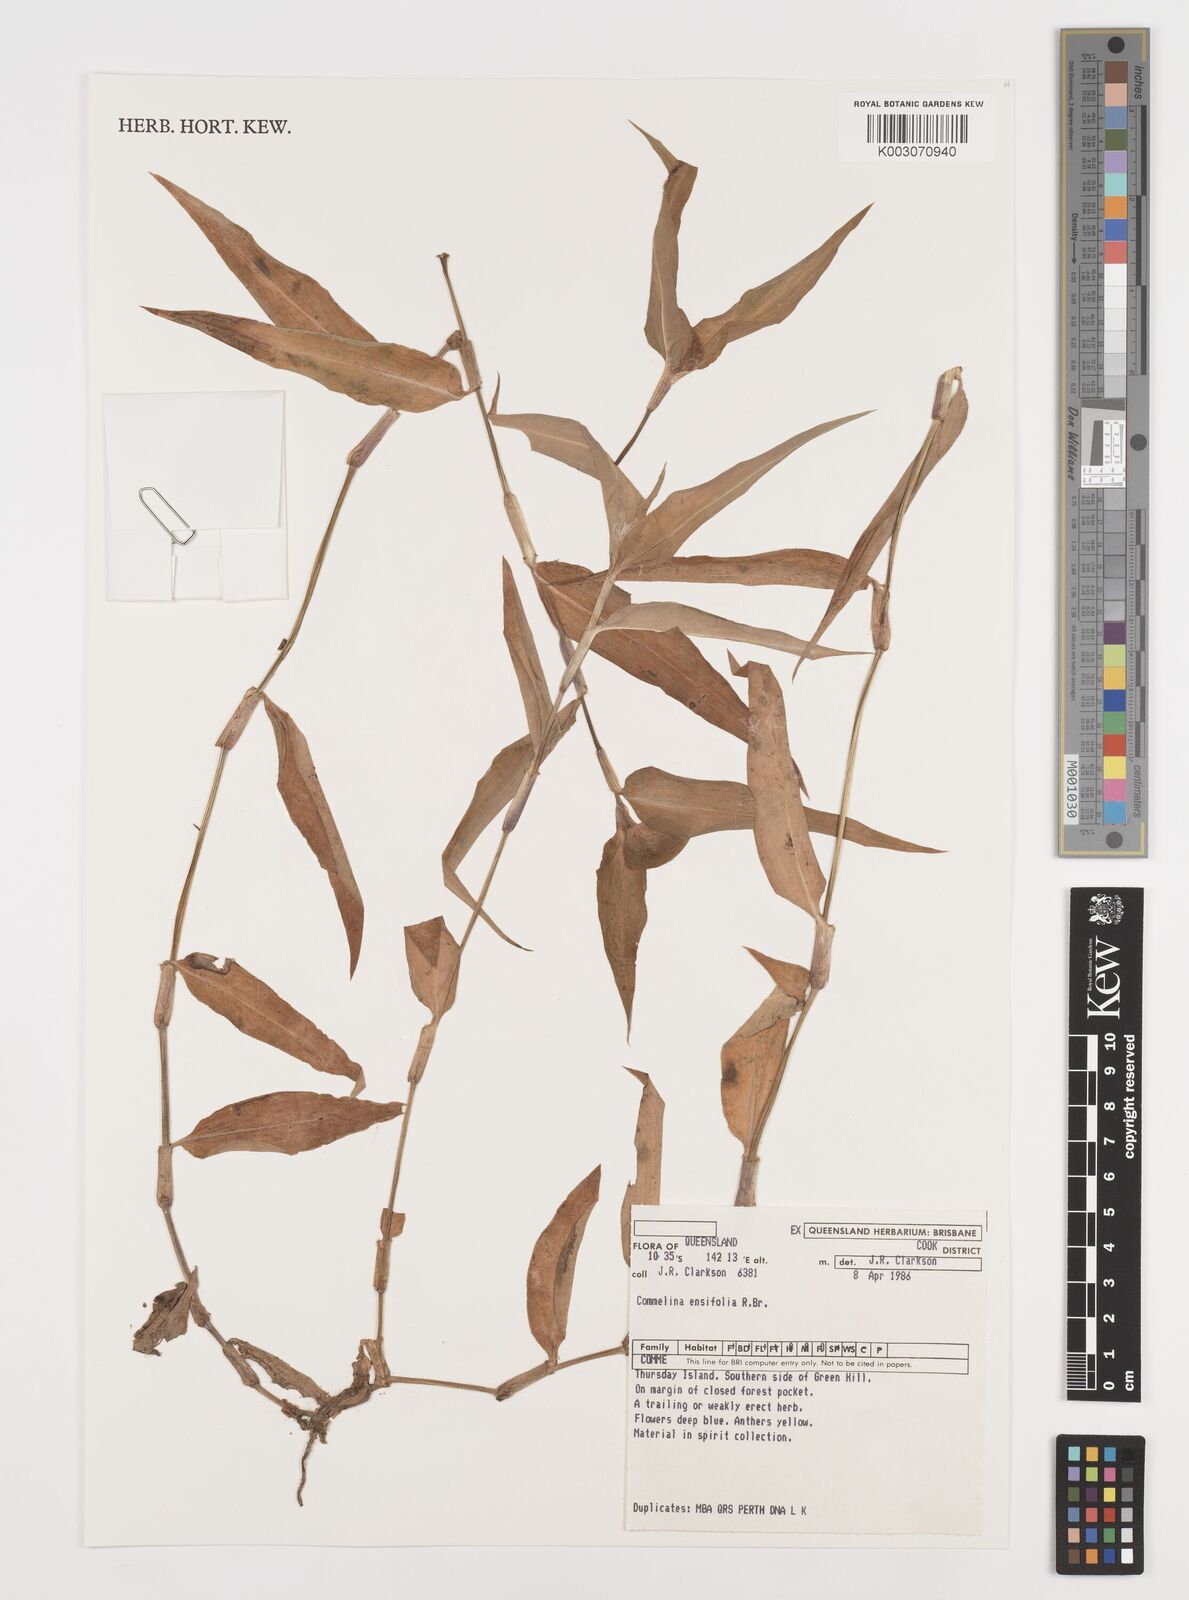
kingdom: Plantae
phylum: Tracheophyta
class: Liliopsida
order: Commelinales
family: Commelinaceae
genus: Commelina
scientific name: Commelina ensifolia
